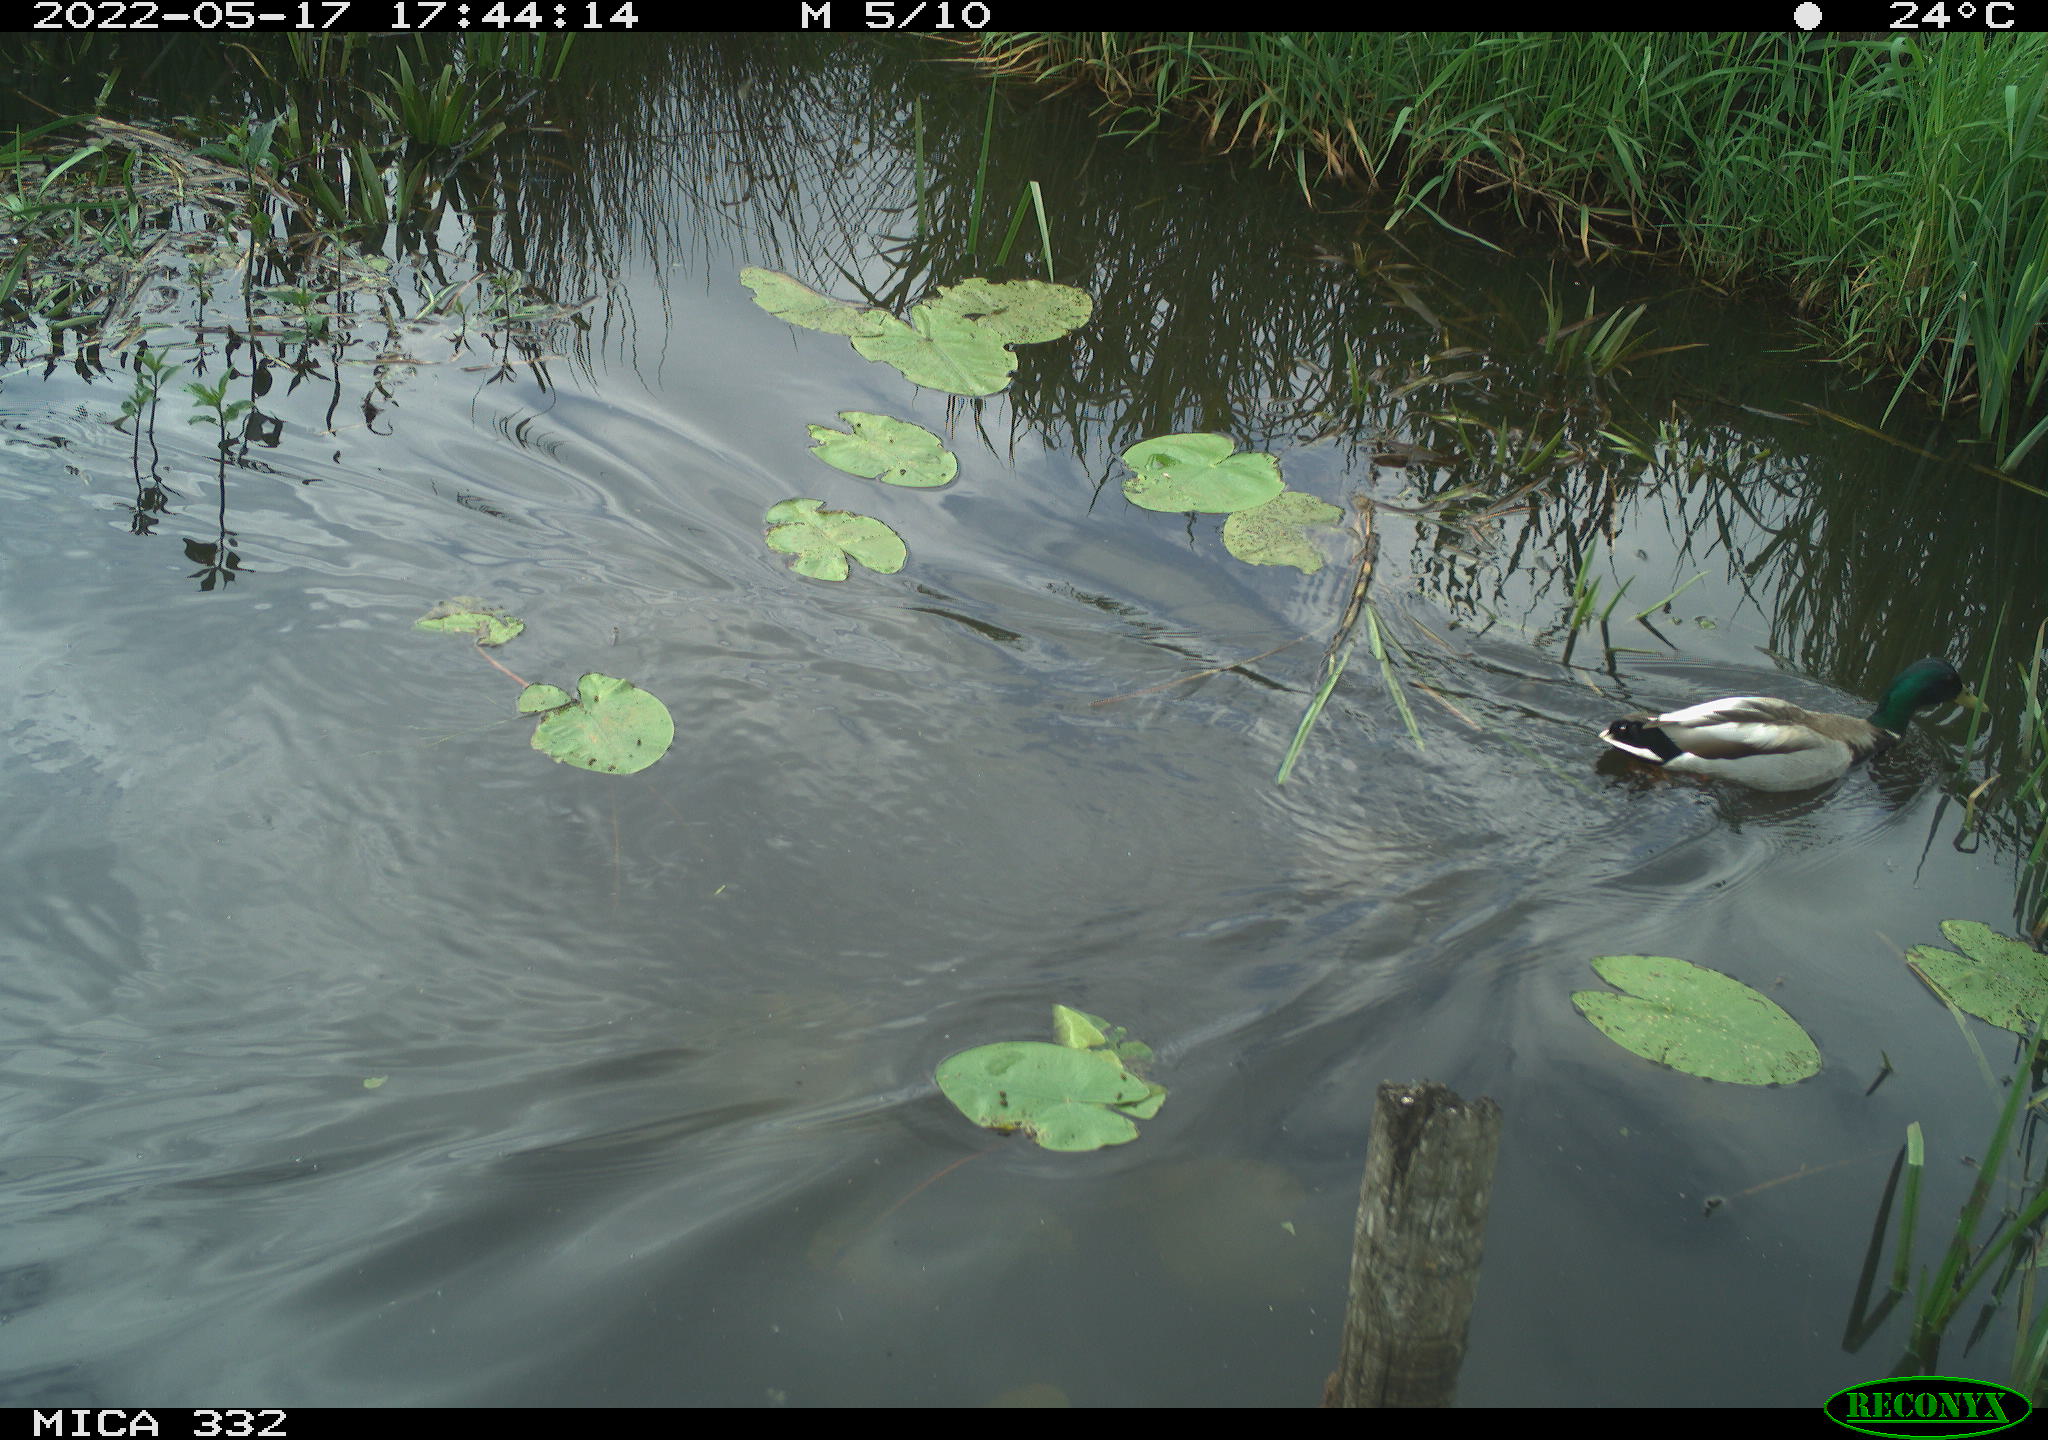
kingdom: Animalia
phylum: Chordata
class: Aves
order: Anseriformes
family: Anatidae
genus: Anas
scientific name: Anas platyrhynchos
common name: Mallard
